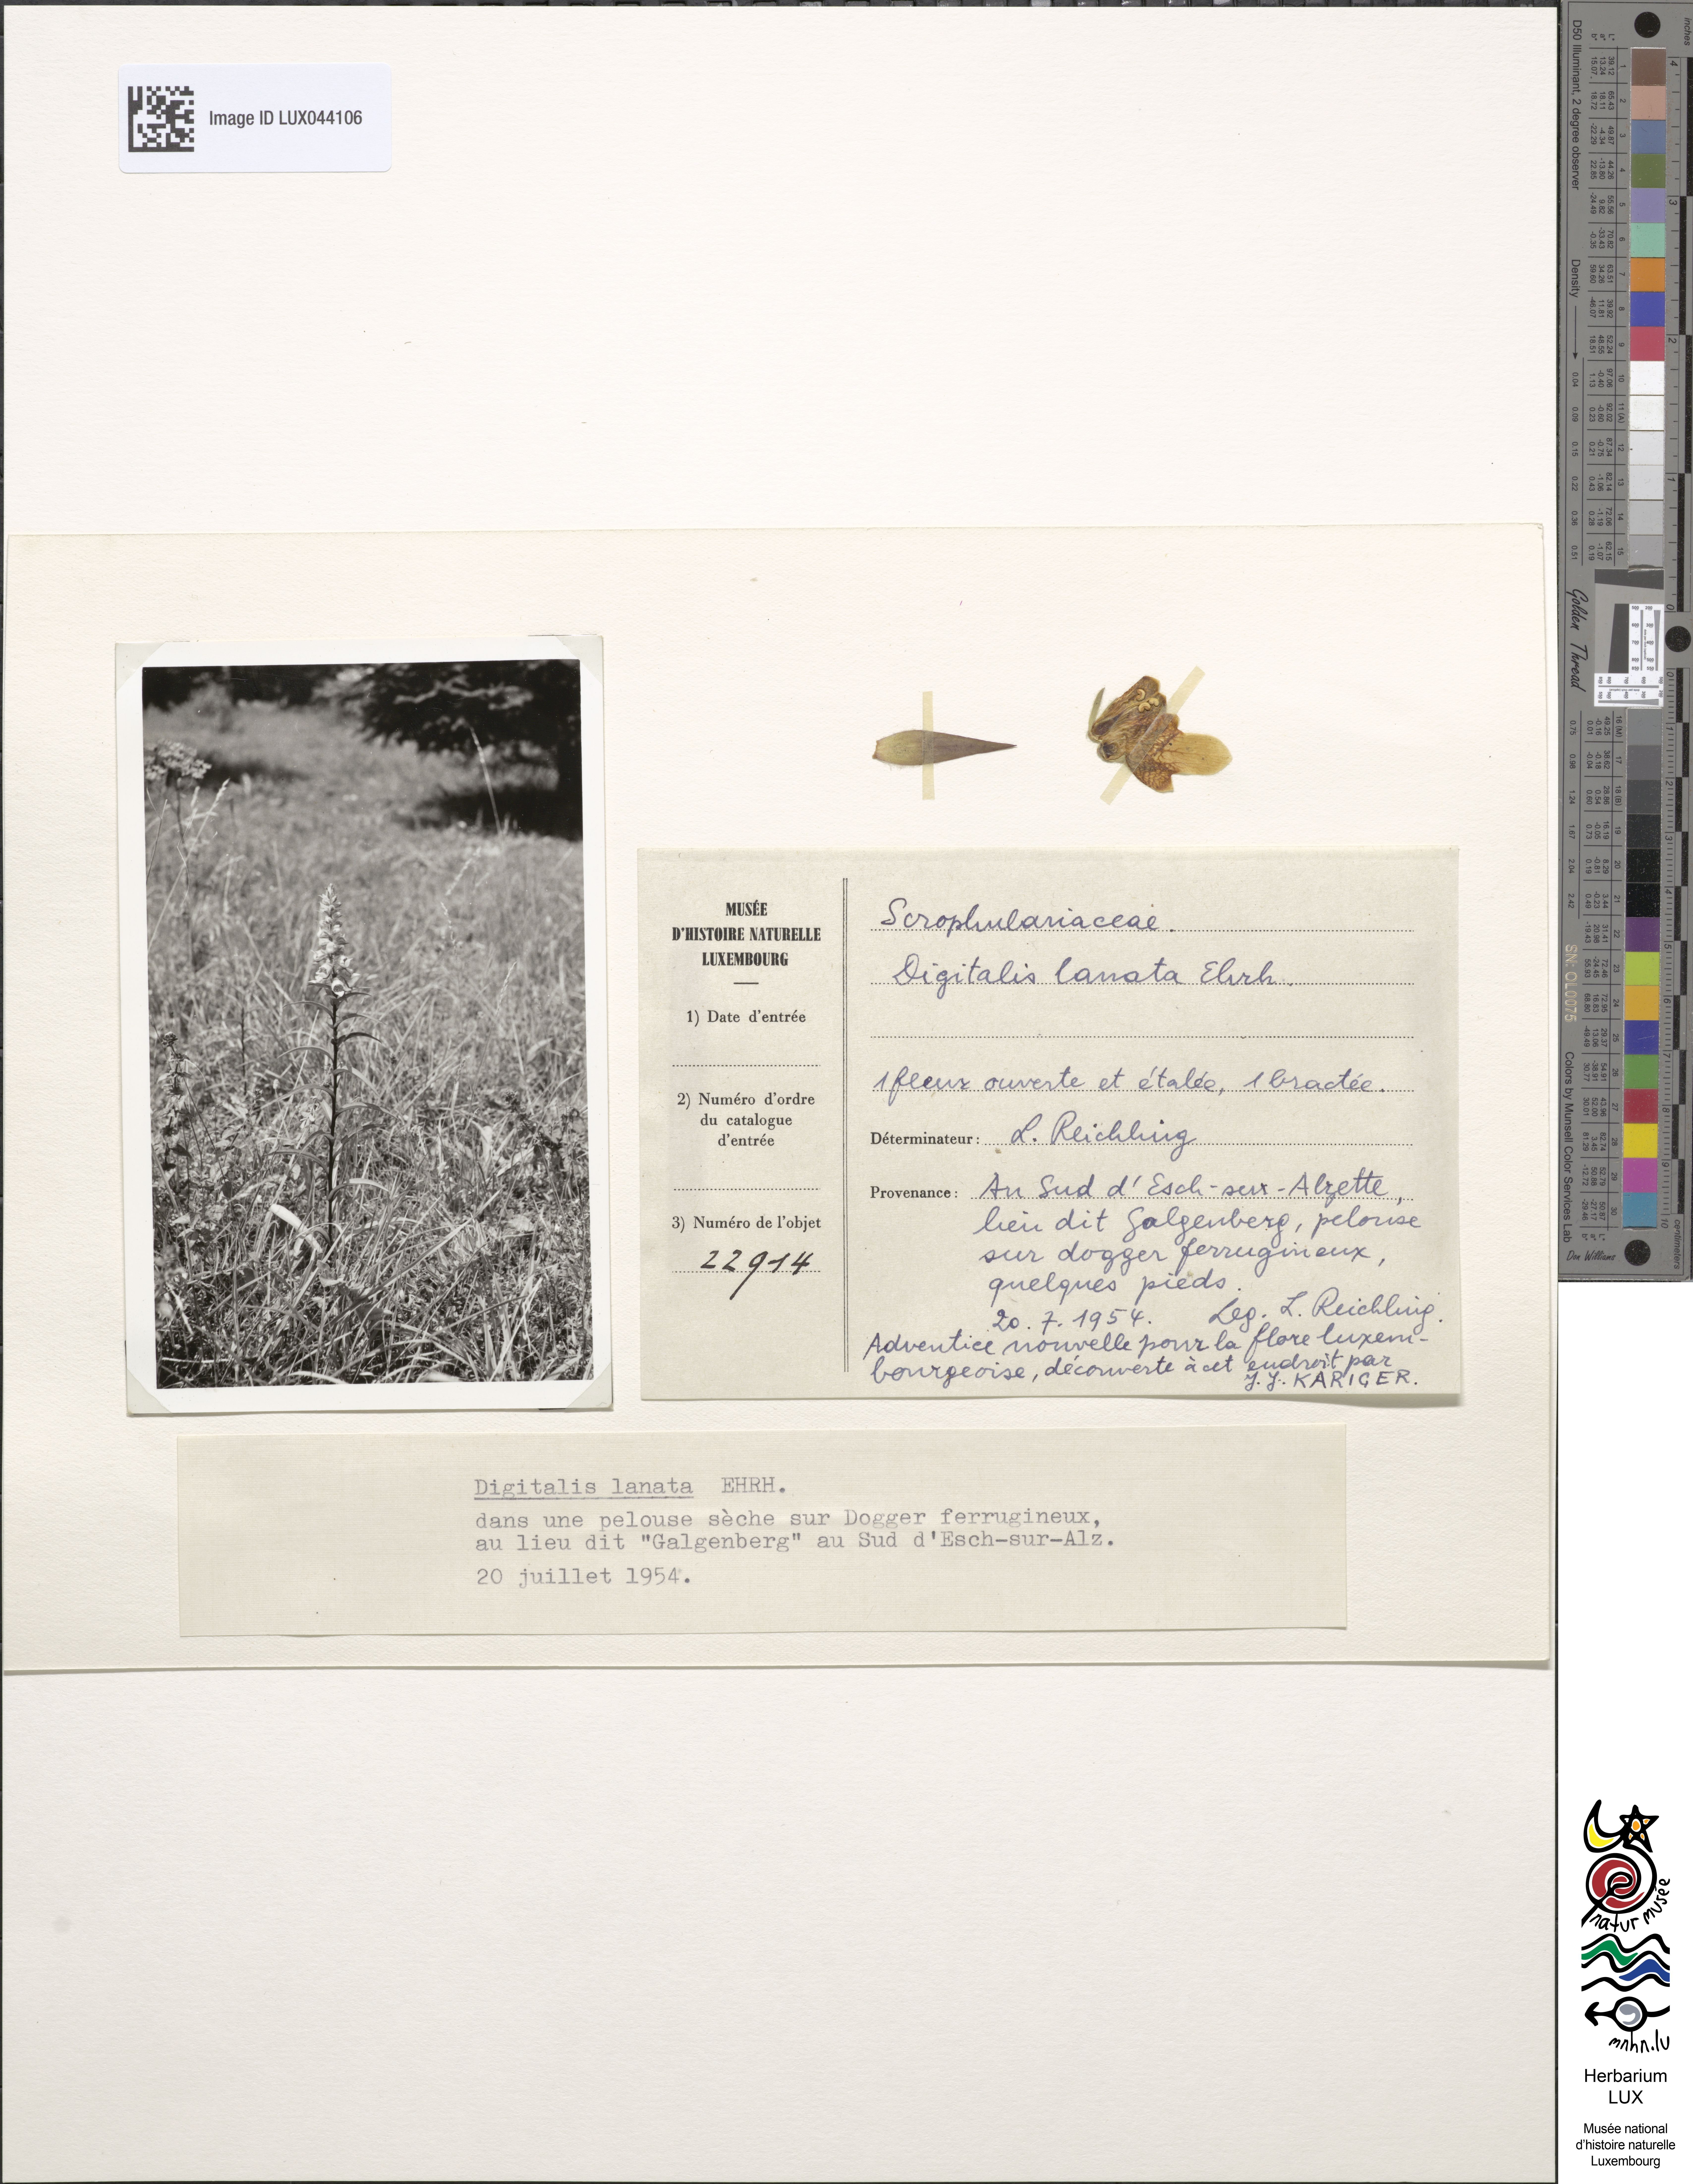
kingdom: Plantae
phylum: Tracheophyta
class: Magnoliopsida
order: Lamiales
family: Plantaginaceae
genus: Digitalis
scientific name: Digitalis lanata
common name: Grecian foxglove
